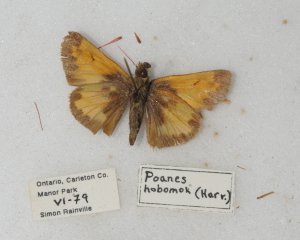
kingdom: Animalia
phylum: Arthropoda
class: Insecta
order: Lepidoptera
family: Hesperiidae
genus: Lon
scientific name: Lon hobomok
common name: Hobomok Skipper
